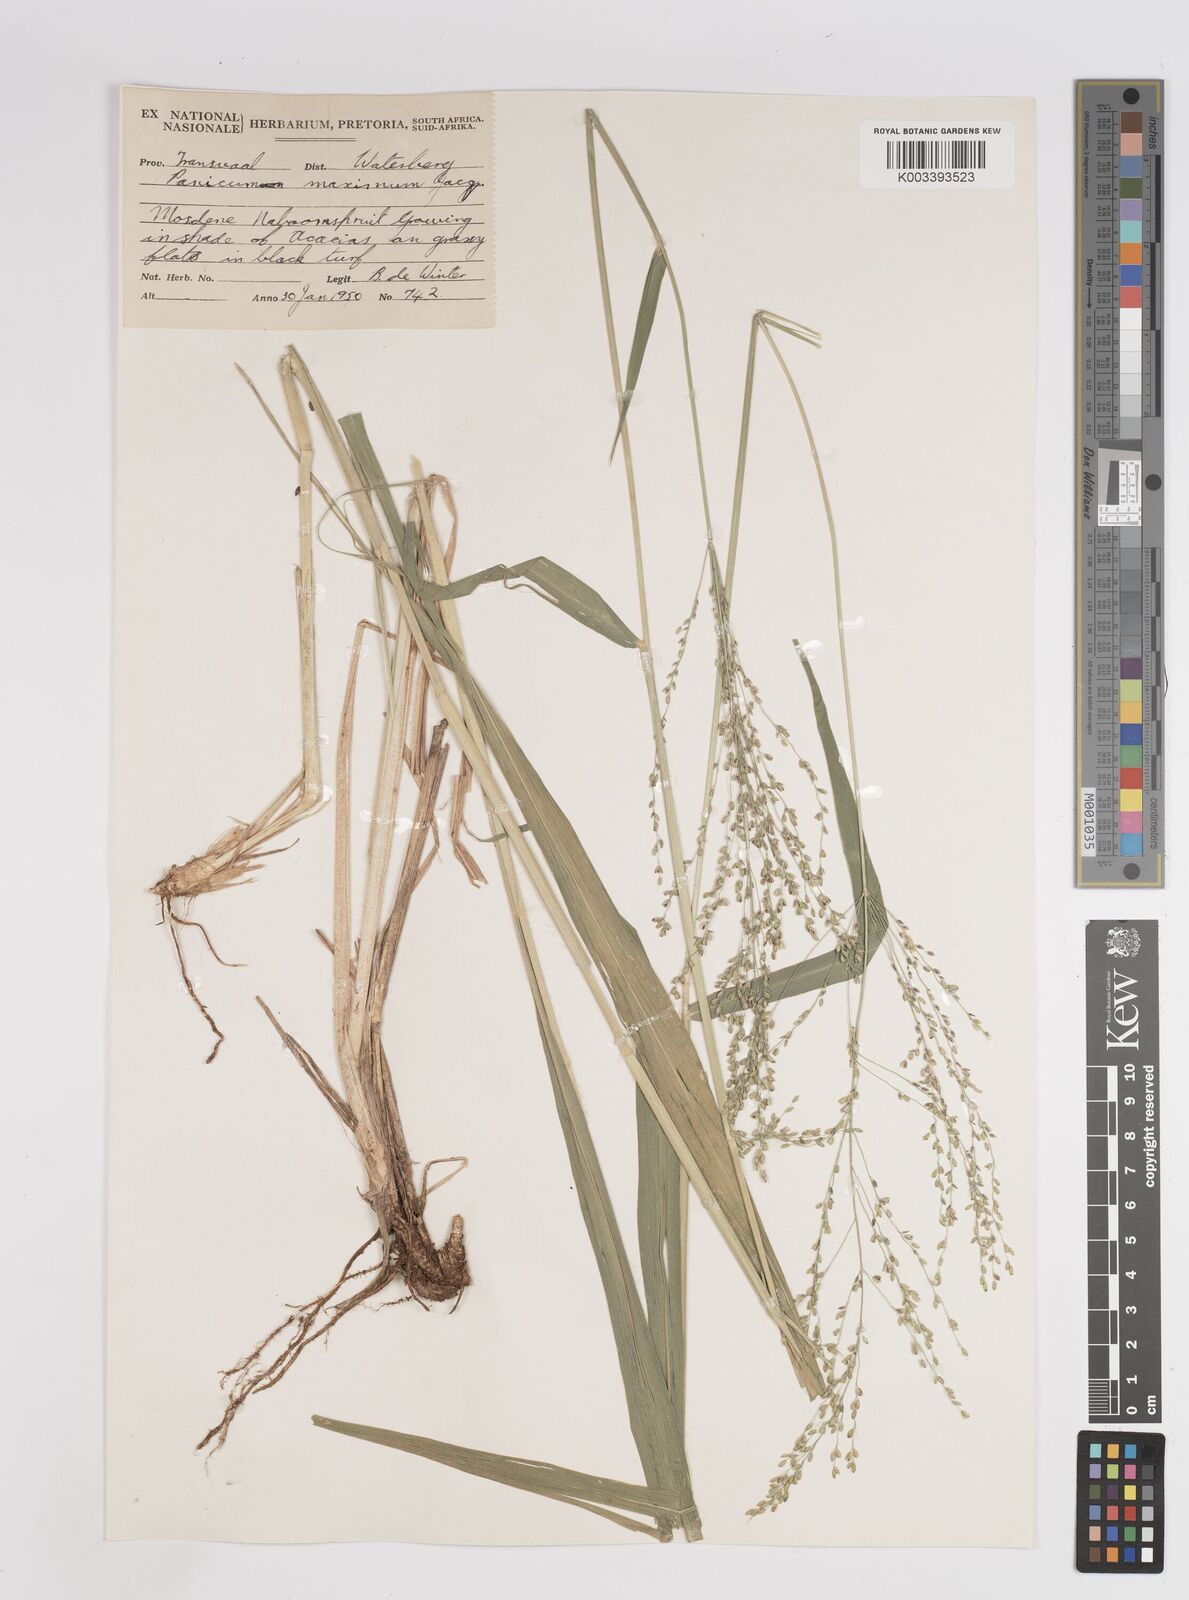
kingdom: Plantae
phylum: Tracheophyta
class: Liliopsida
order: Poales
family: Poaceae
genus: Megathyrsus
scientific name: Megathyrsus maximus
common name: Guineagrass
